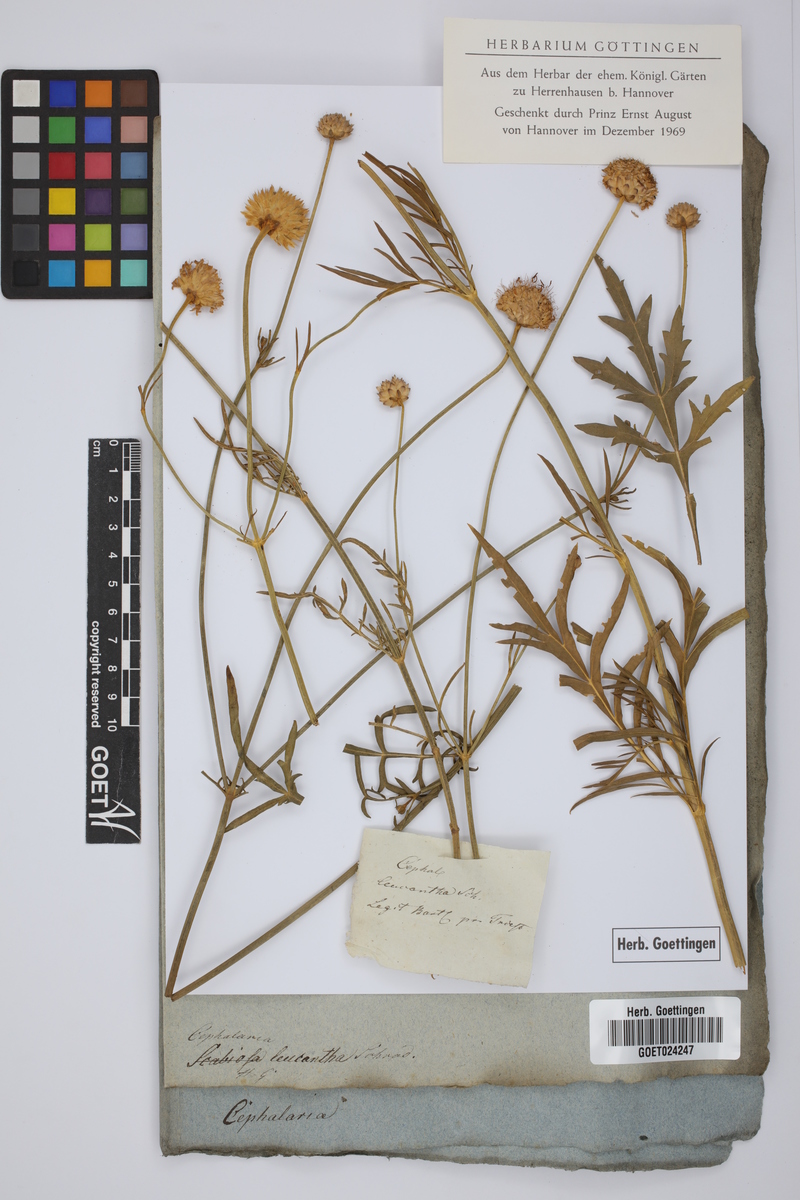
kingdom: Plantae
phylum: Tracheophyta
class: Magnoliopsida
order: Dipsacales
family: Caprifoliaceae
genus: Cephalaria
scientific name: Cephalaria leucantha
